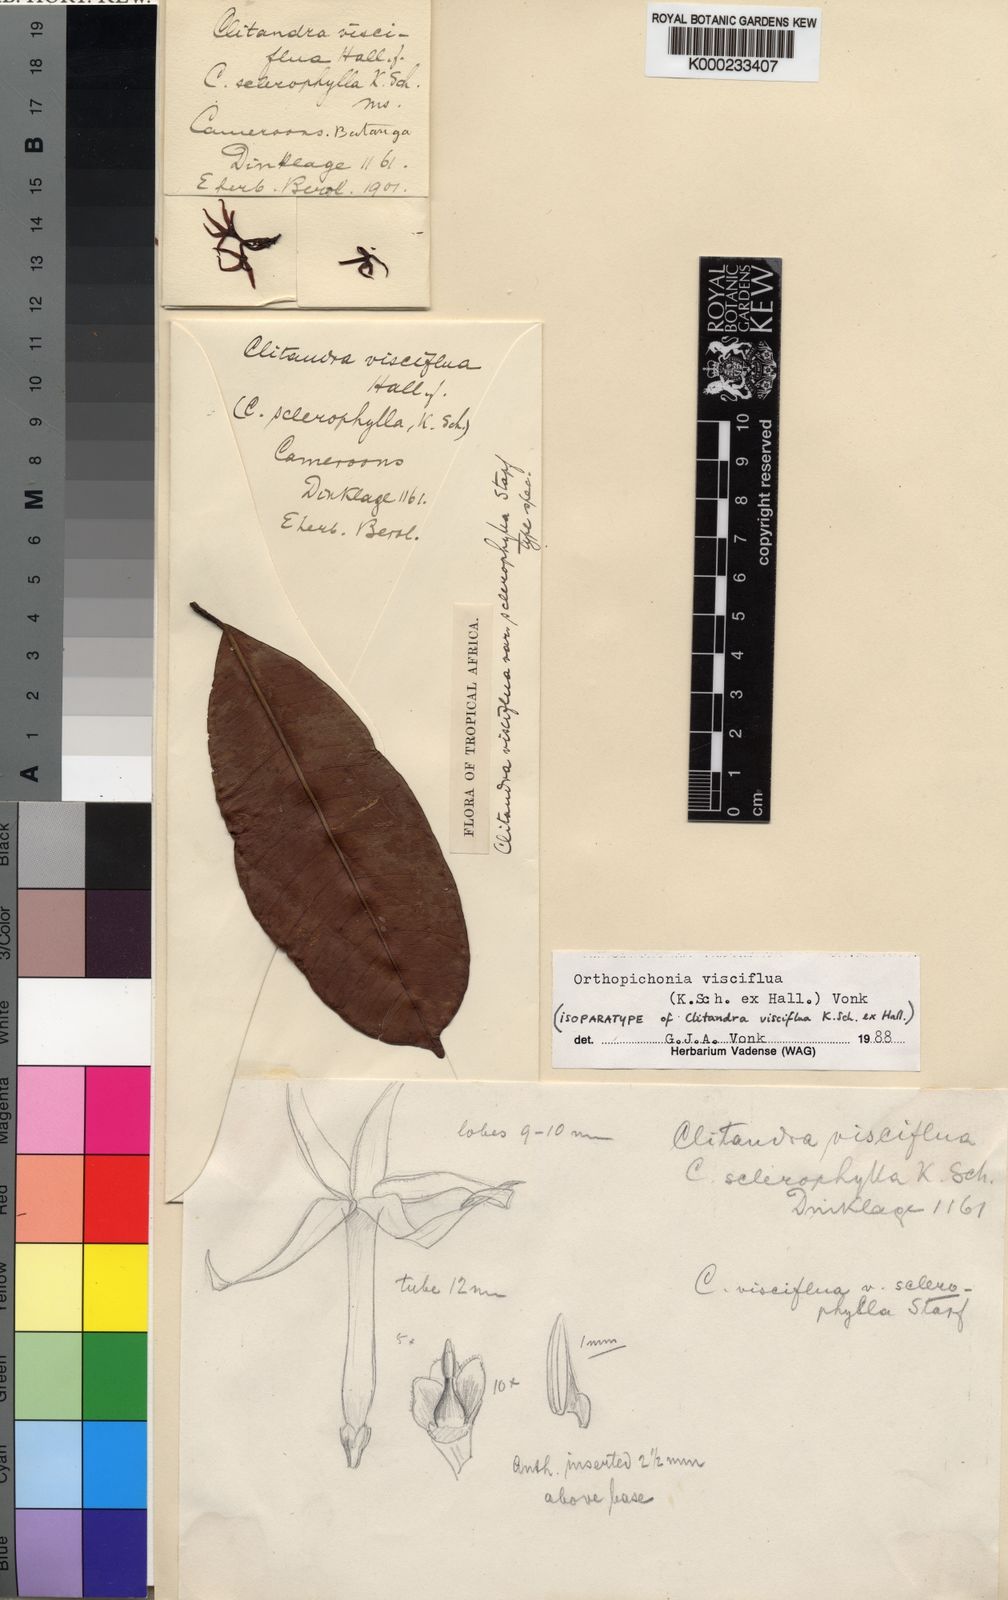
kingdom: Plantae
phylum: Tracheophyta
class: Magnoliopsida
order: Gentianales
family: Apocynaceae
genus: Orthopichonia
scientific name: Orthopichonia schweinfurthii
